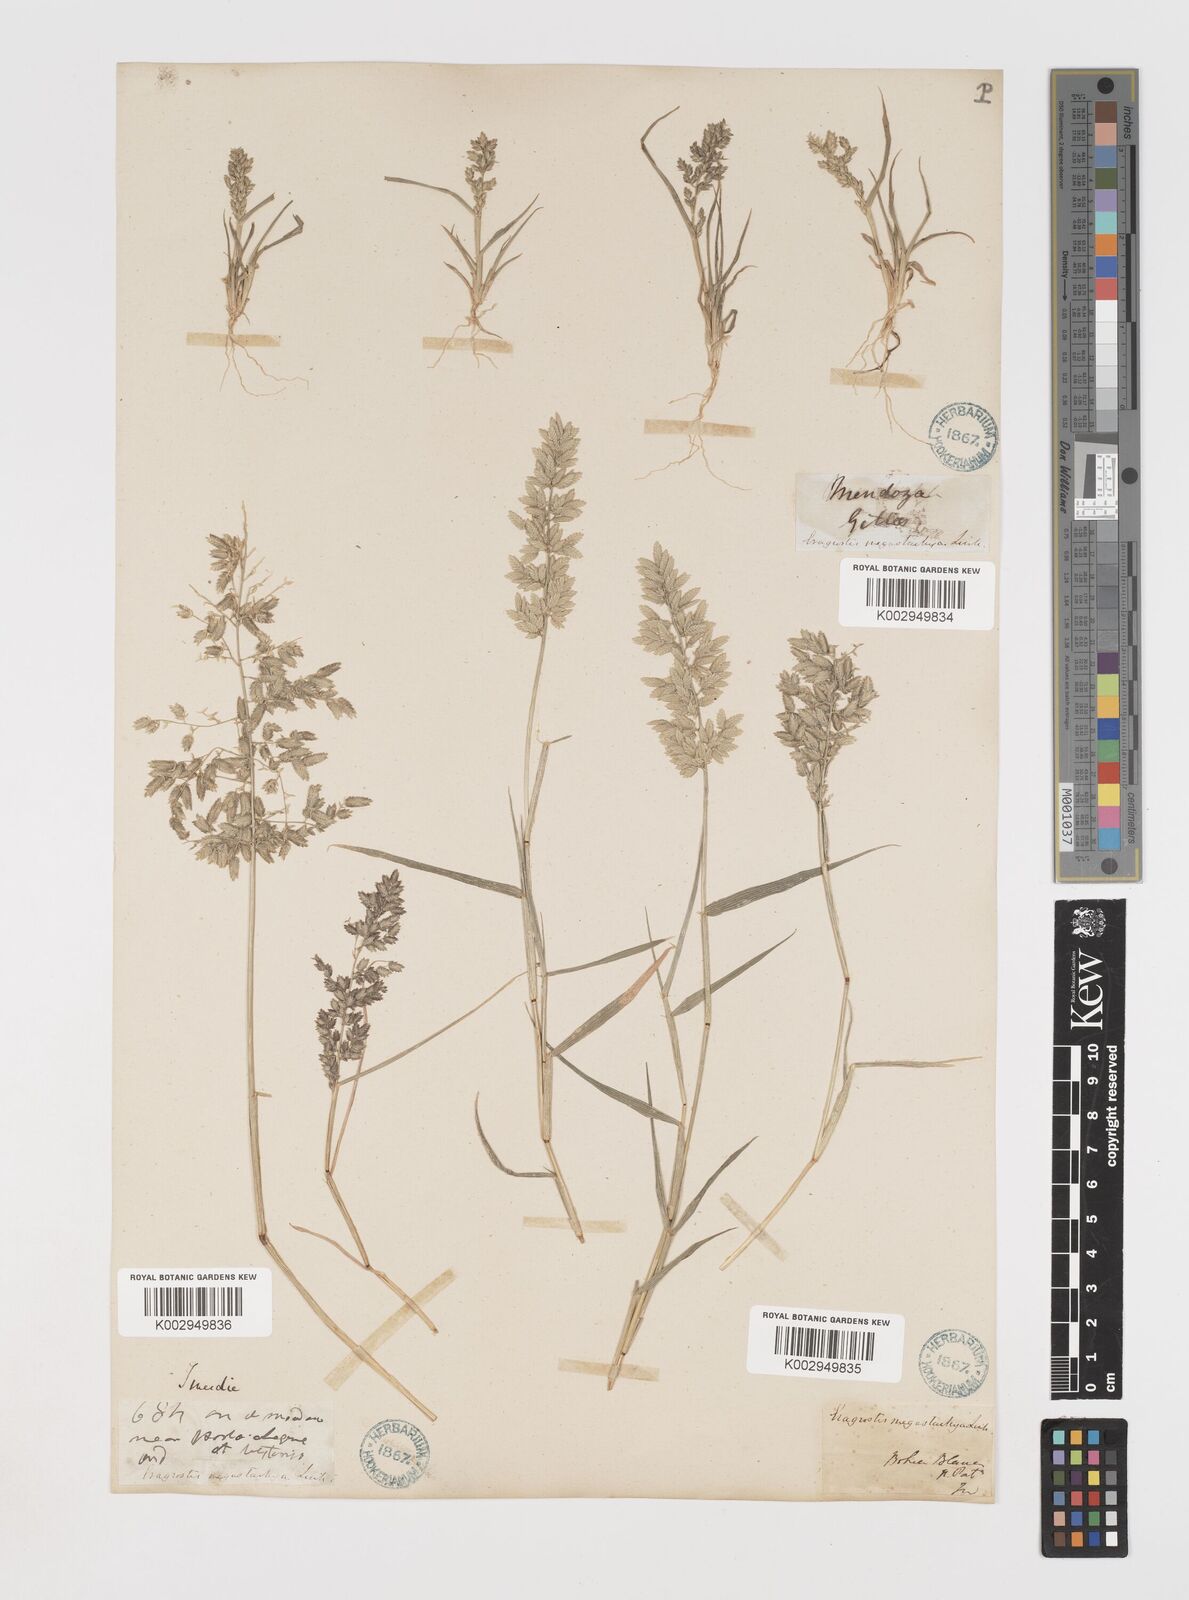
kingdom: Plantae
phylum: Tracheophyta
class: Liliopsida
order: Poales
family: Poaceae
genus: Eragrostis
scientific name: Eragrostis cilianensis
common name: Stinkgrass
